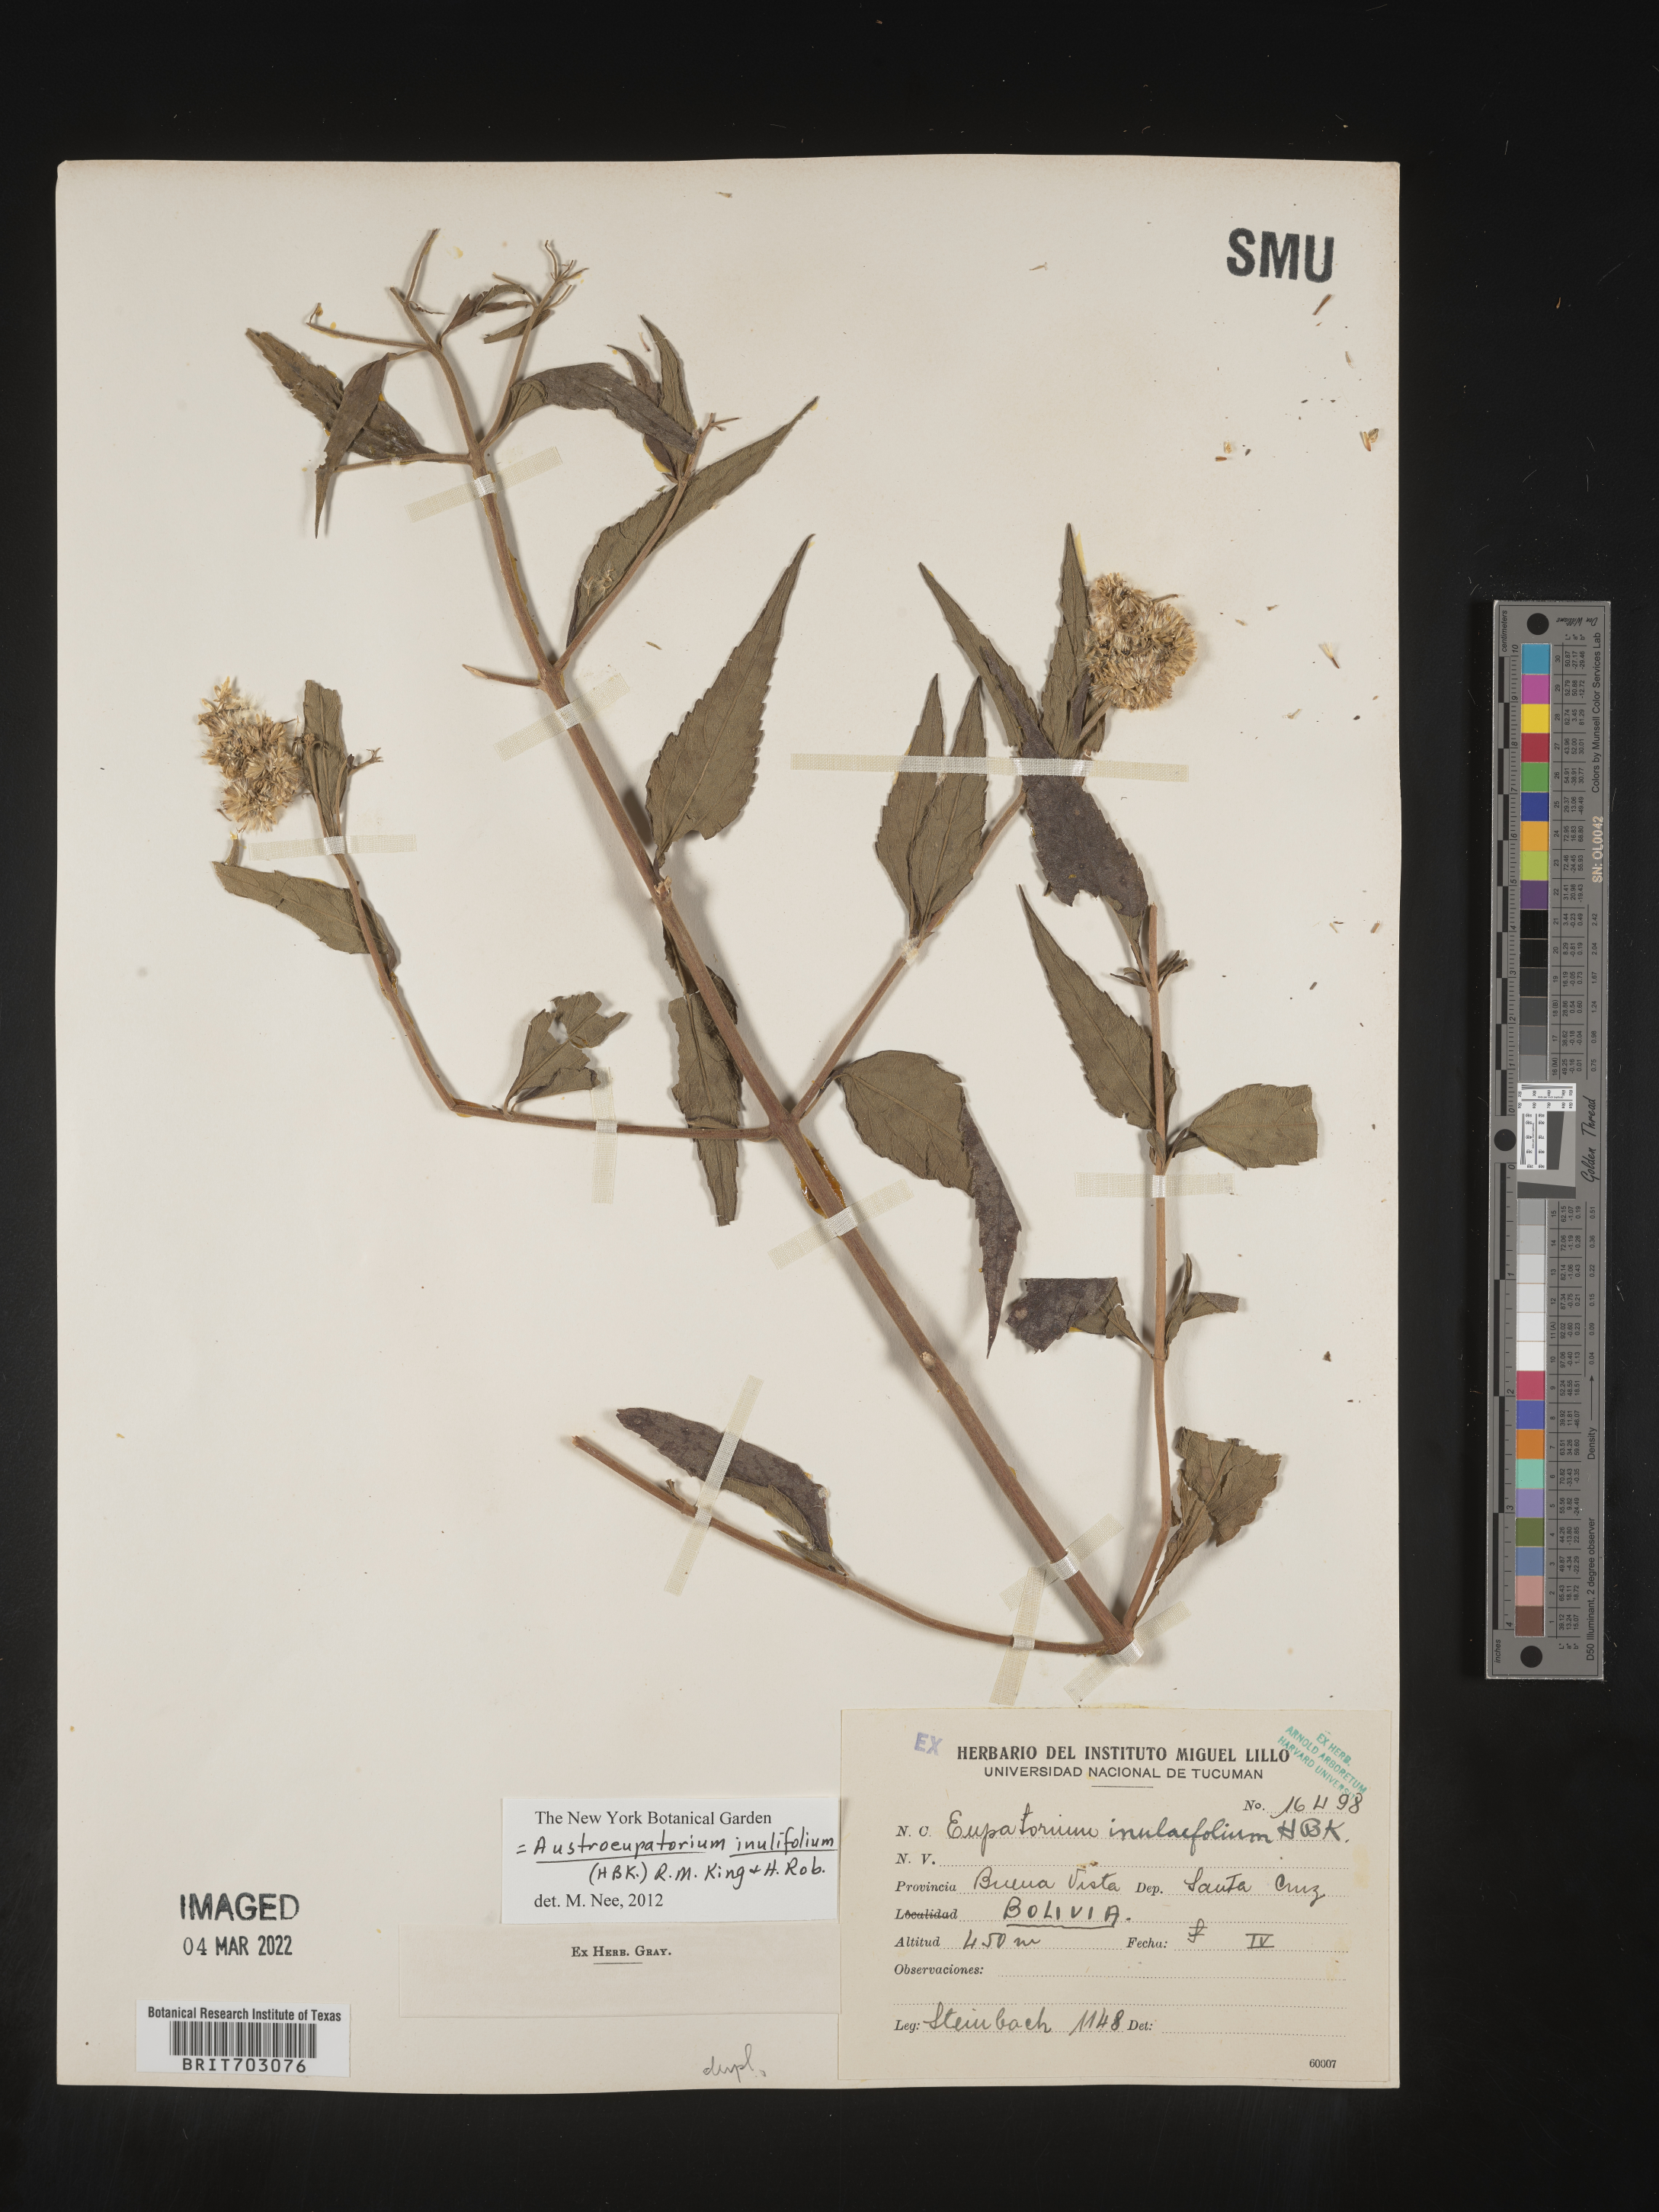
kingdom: Plantae
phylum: Tracheophyta
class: Magnoliopsida
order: Asterales
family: Asteraceae
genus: Eupatorium
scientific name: Eupatorium
